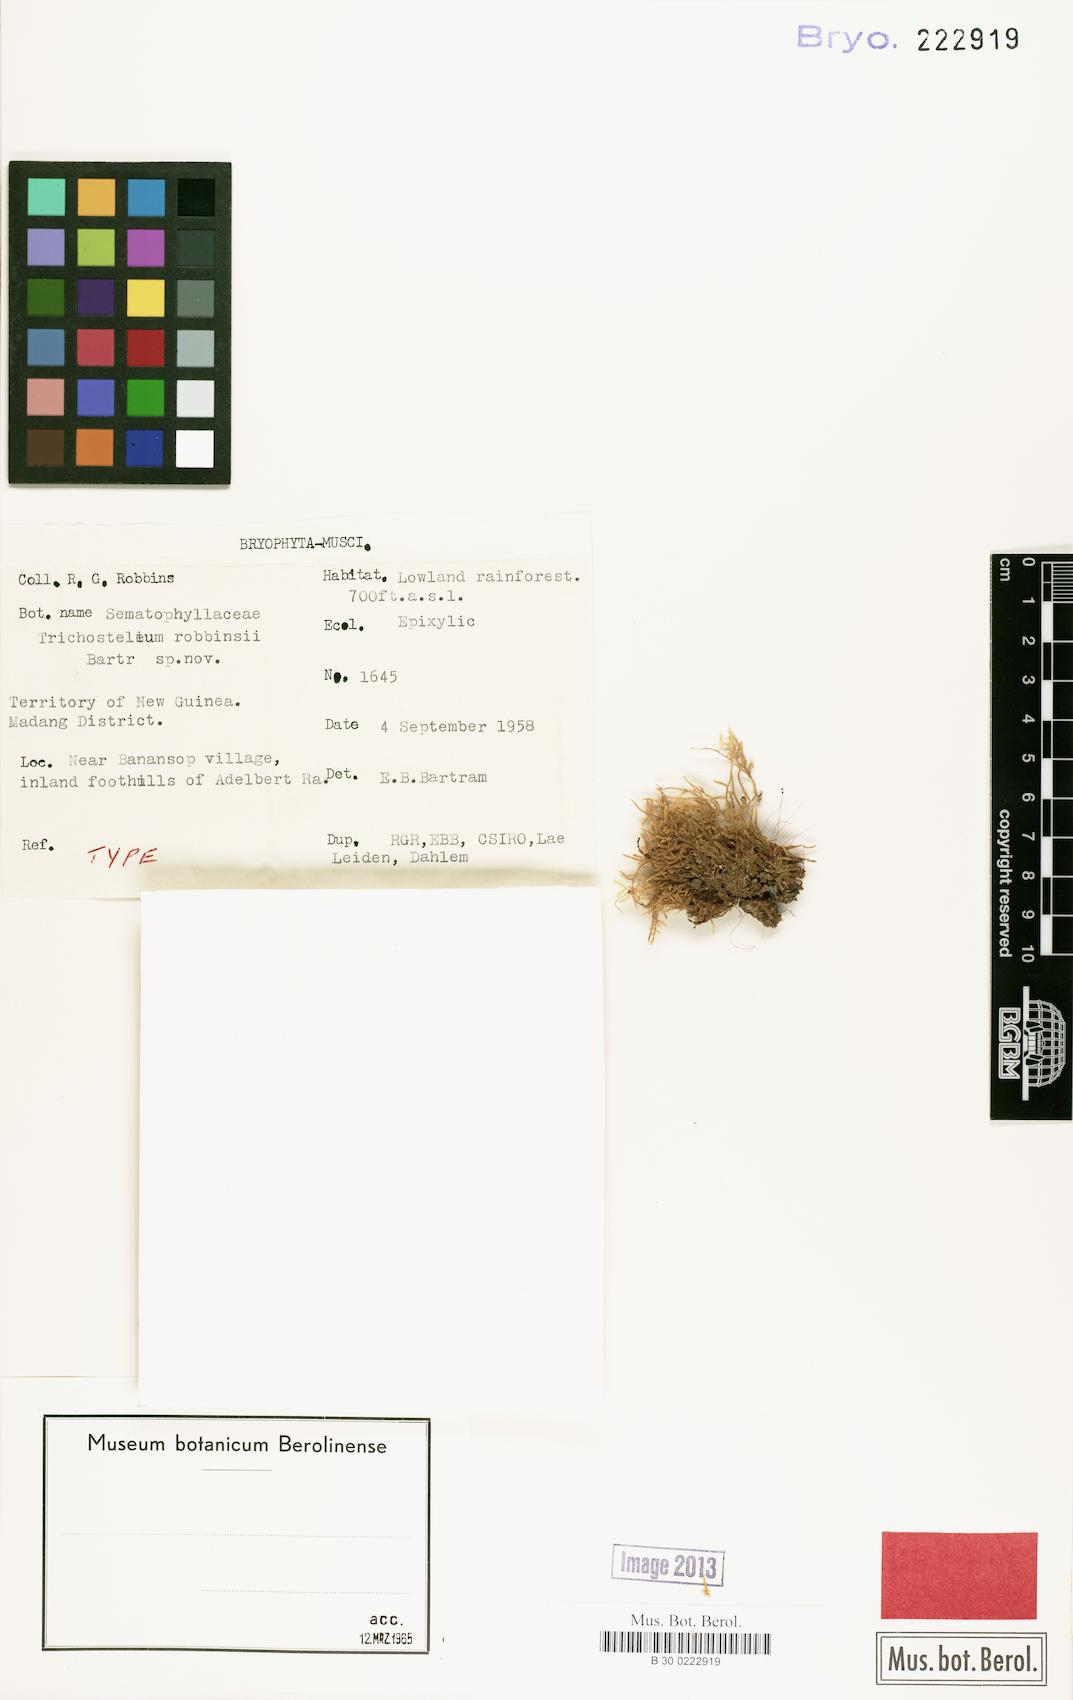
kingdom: Plantae
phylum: Bryophyta
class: Bryopsida
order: Hypnales
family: Sematophyllaceae
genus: Trichosteleum
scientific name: Trichosteleum pseudomammosum
